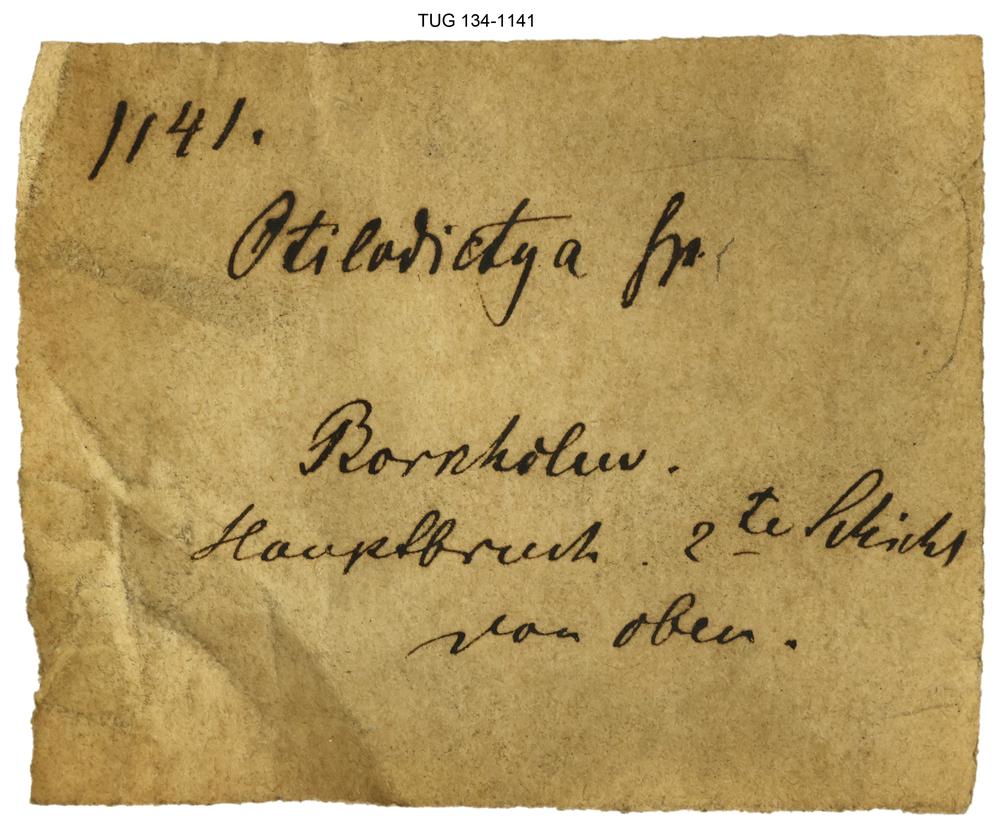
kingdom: Animalia
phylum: Bryozoa
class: Stenolaemata
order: Cryptostomida
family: Ptilodictyidae
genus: Ptilodictya
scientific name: Ptilodictya
